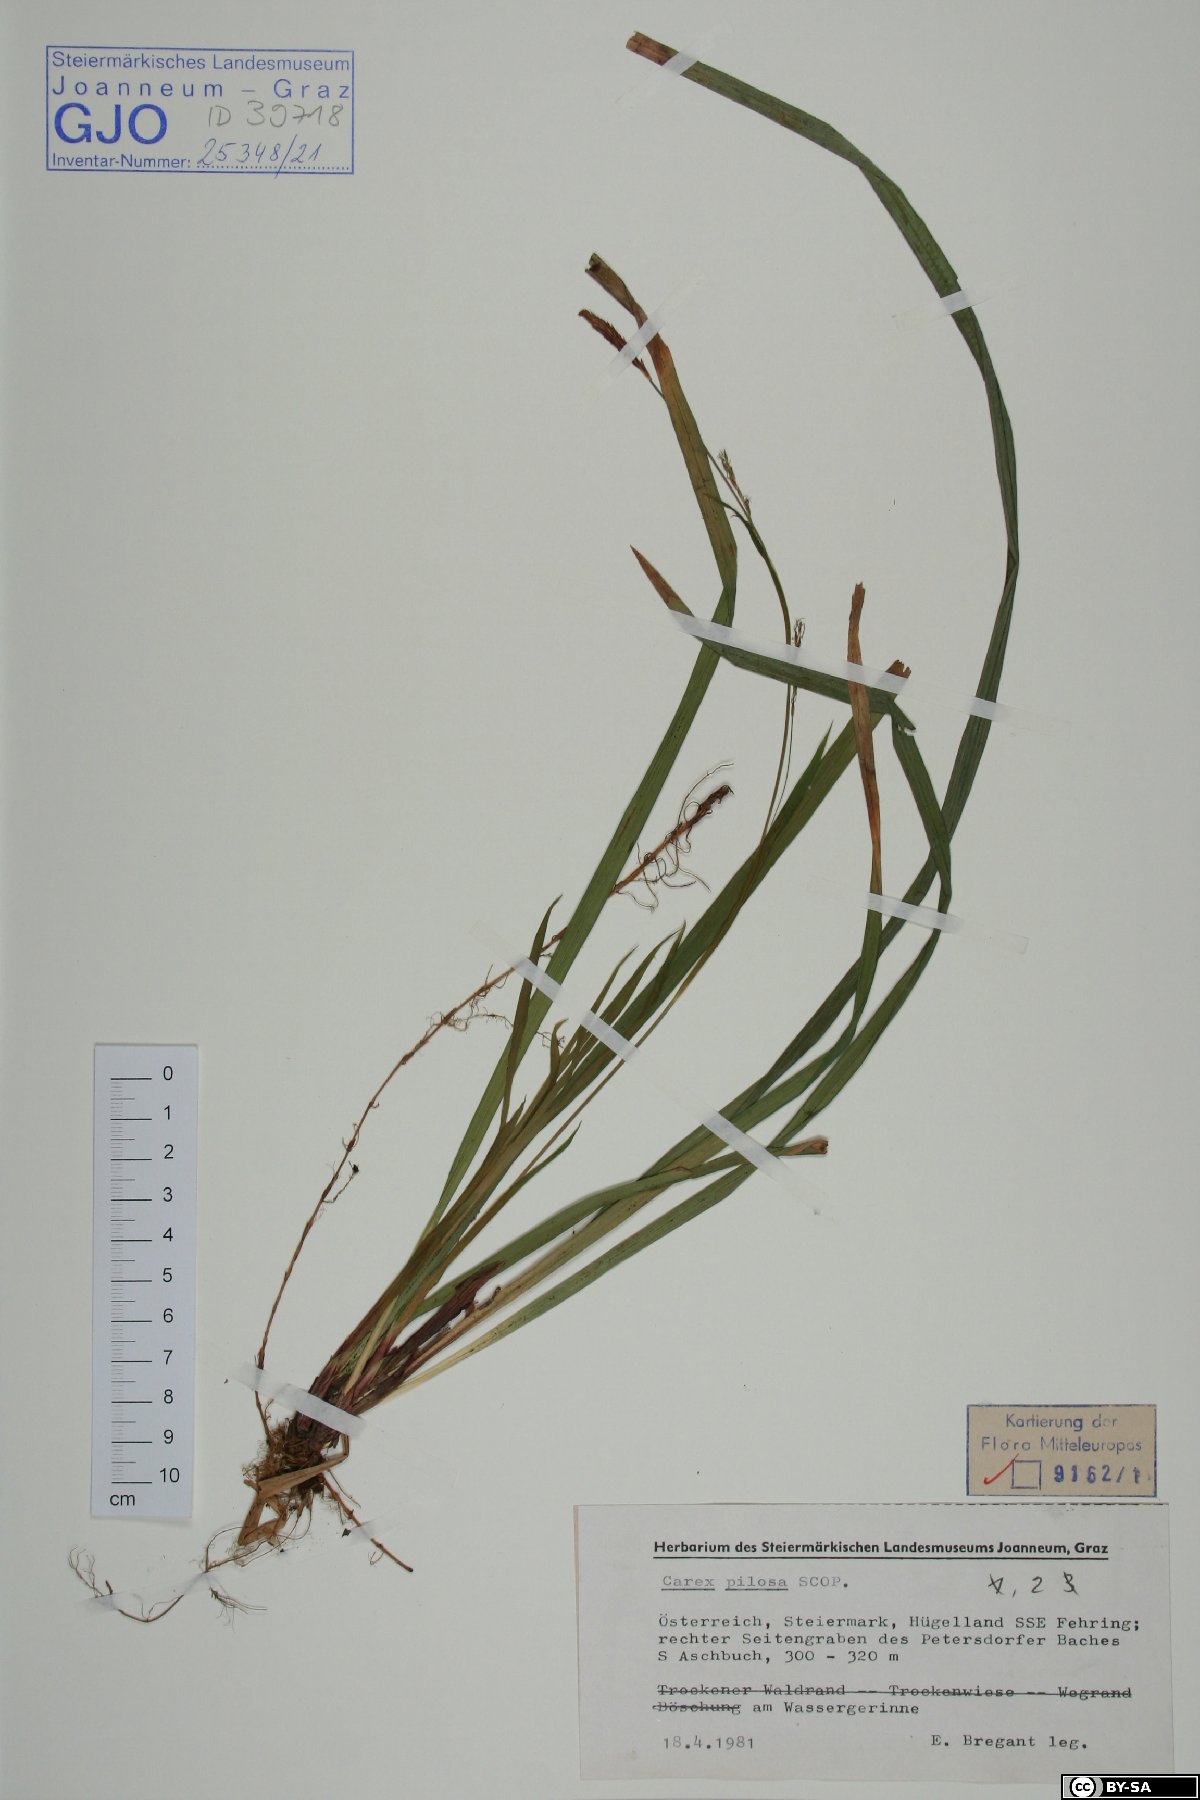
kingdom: Plantae
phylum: Tracheophyta
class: Liliopsida
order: Poales
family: Cyperaceae
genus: Carex
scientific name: Carex pilosa
